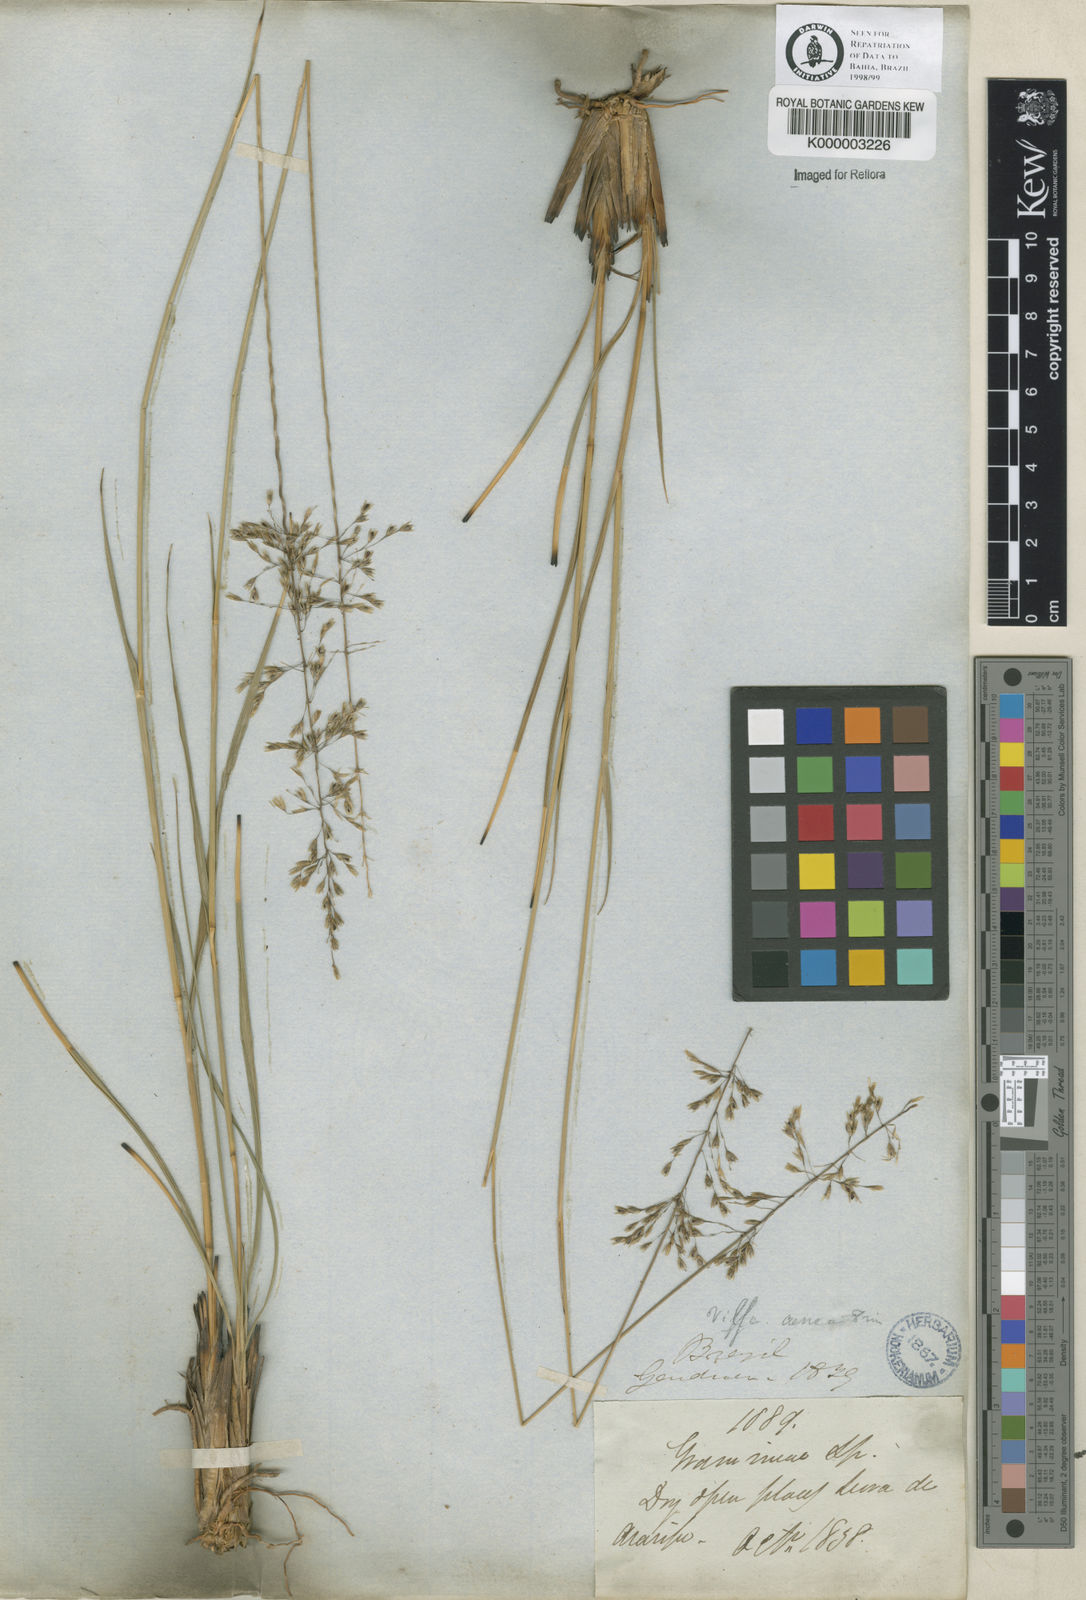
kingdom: Plantae
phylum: Tracheophyta
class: Liliopsida
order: Poales
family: Poaceae
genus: Sporobolus
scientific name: Sporobolus cubensis
